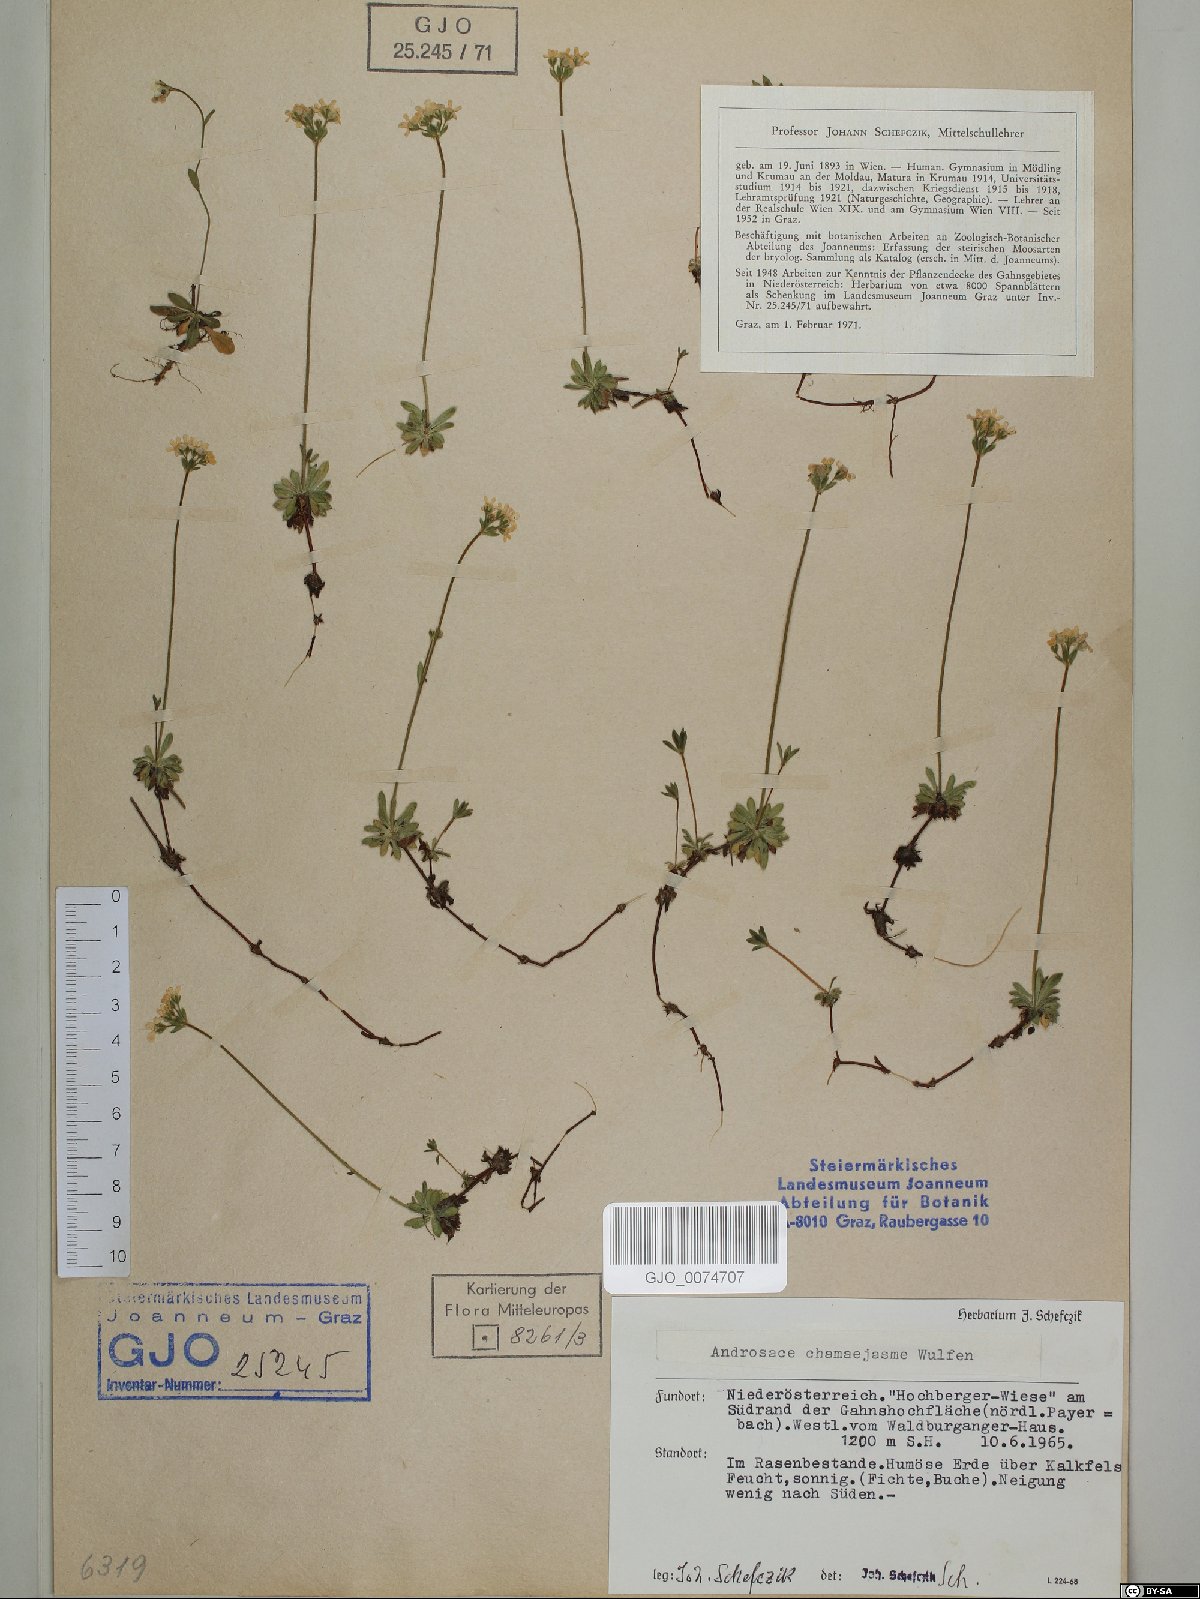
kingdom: Plantae
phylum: Tracheophyta
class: Magnoliopsida
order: Ericales
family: Primulaceae
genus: Androsace
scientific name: Androsace chamaejasme
